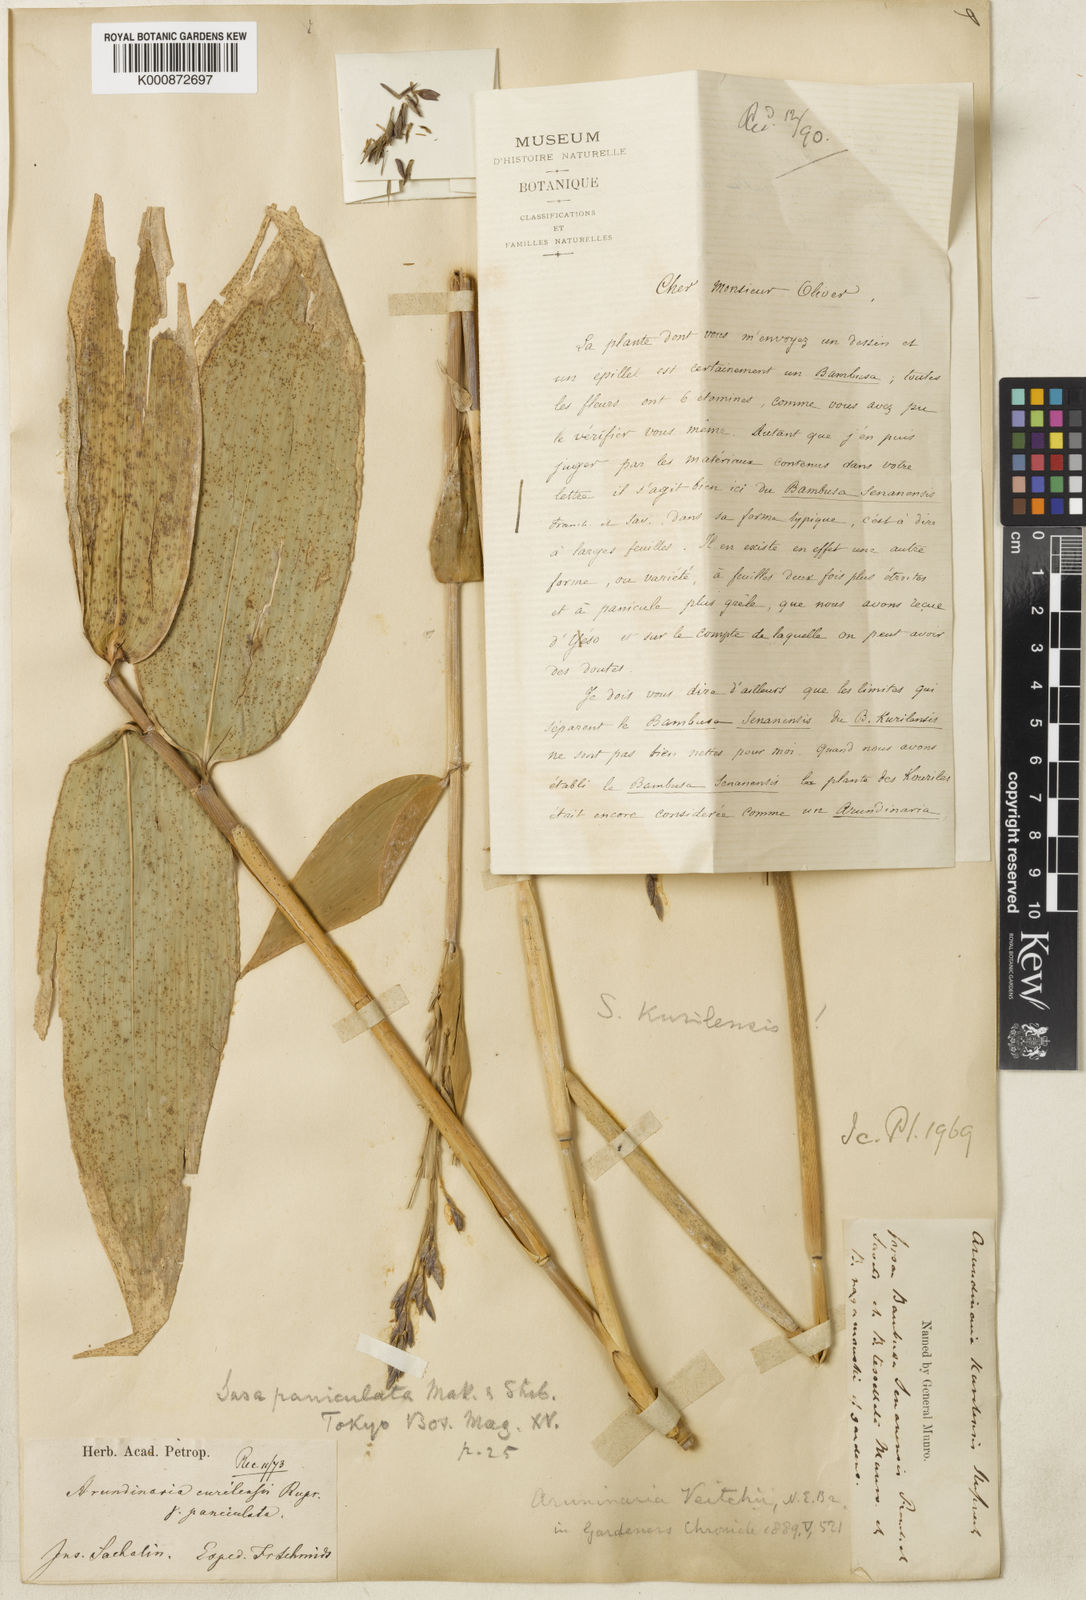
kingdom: Plantae
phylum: Tracheophyta
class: Liliopsida
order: Poales
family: Poaceae
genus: Sasa
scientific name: Sasa kurilensis
